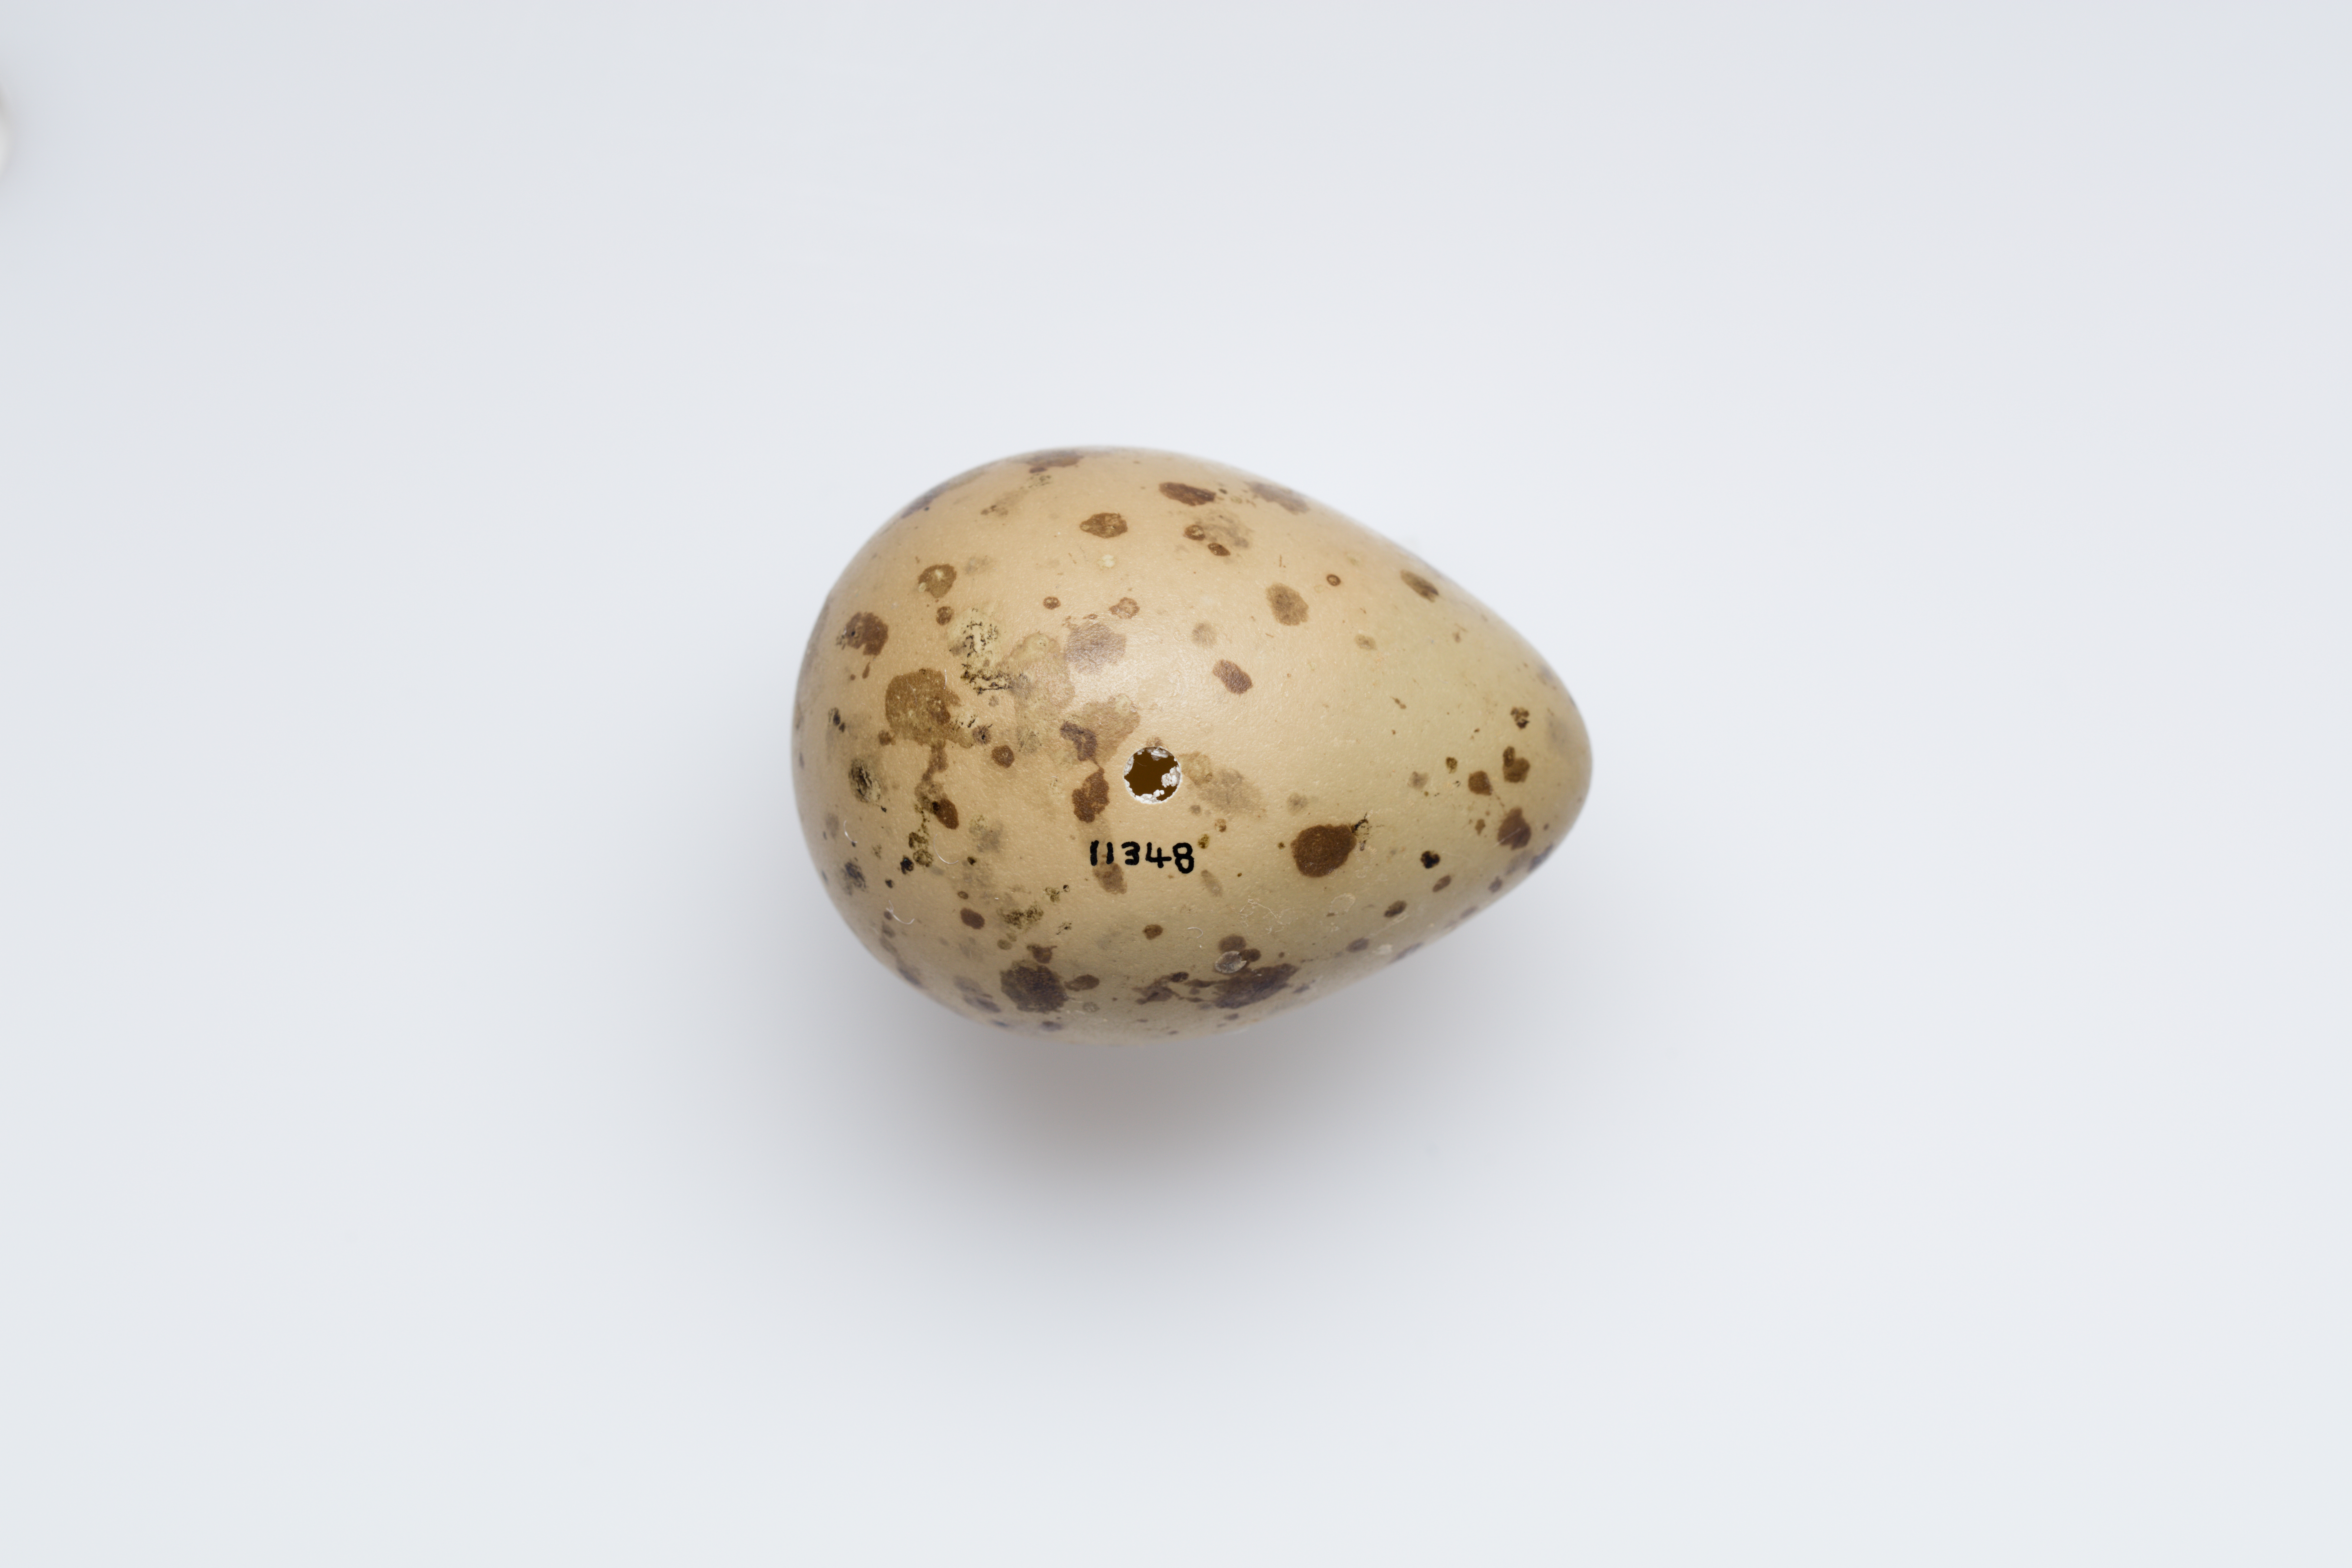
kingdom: Animalia
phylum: Chordata
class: Aves
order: Charadriiformes
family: Scolopacidae
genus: Numenius
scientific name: Numenius phaeopus
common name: Whimbrel
